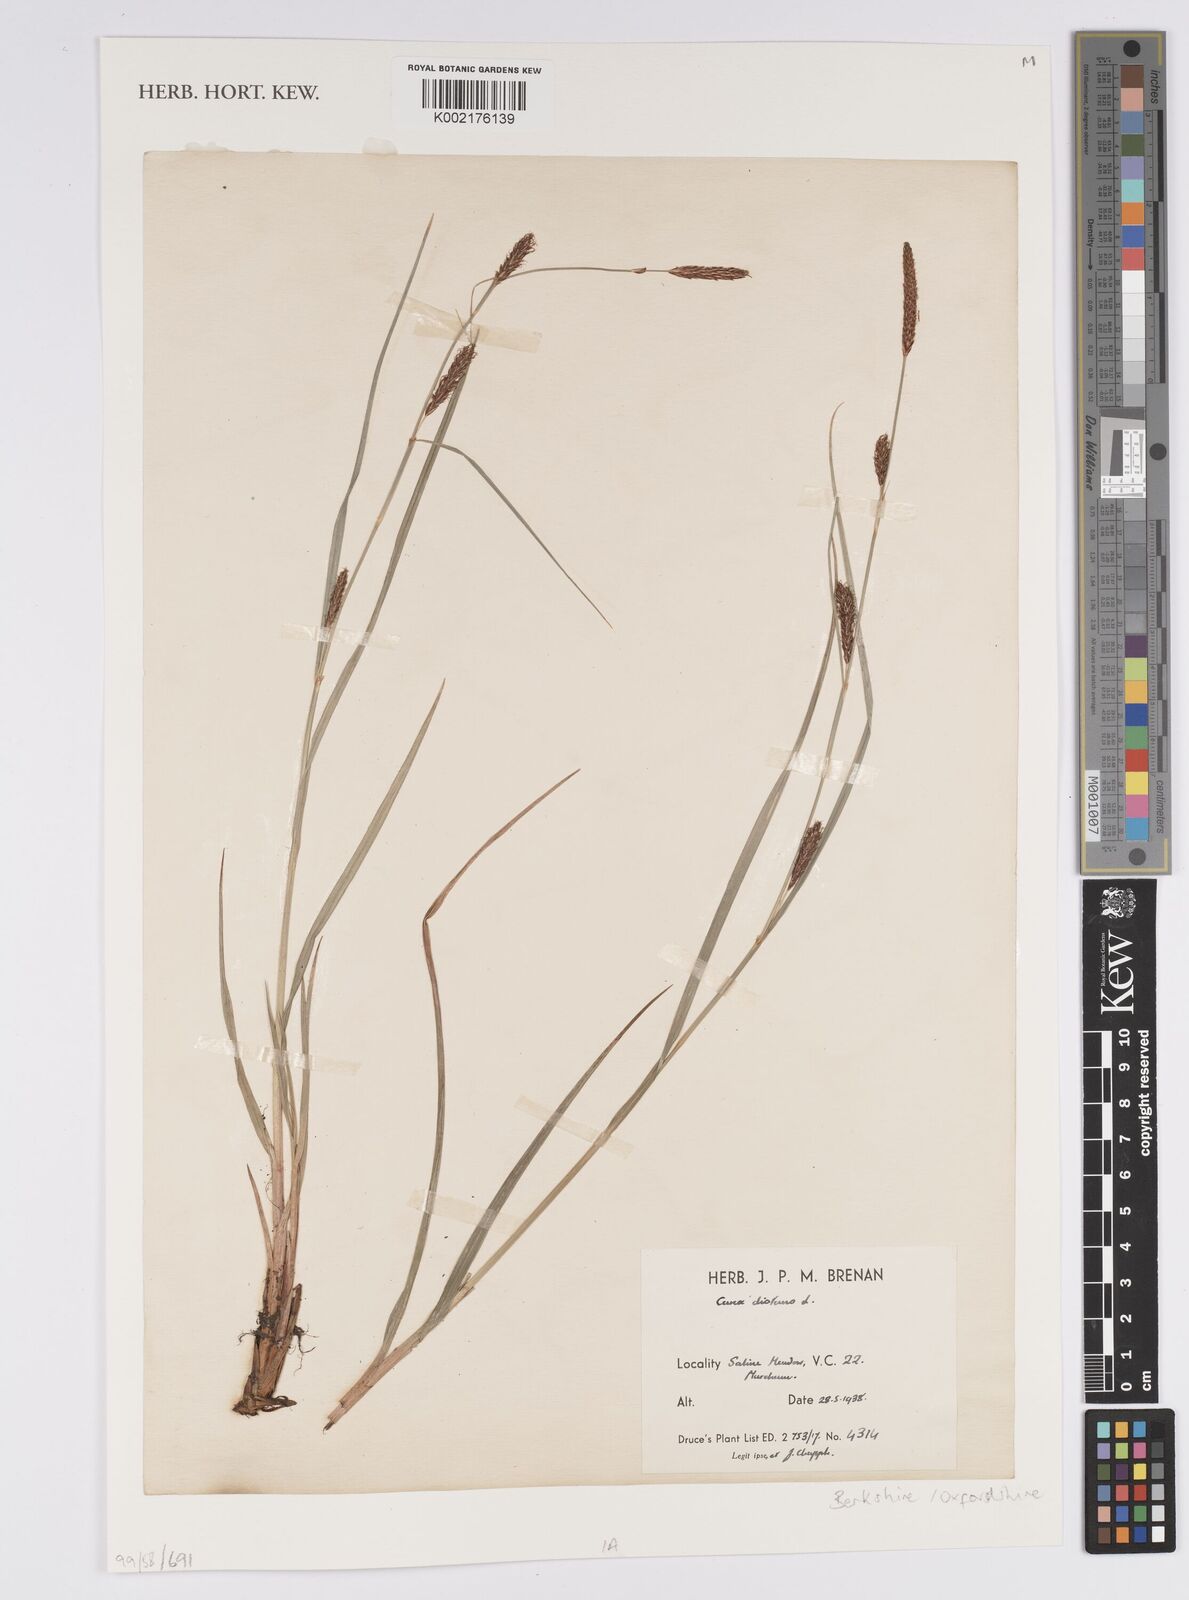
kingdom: Plantae
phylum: Tracheophyta
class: Liliopsida
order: Poales
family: Cyperaceae
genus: Carex
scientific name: Carex distans
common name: Distant sedge
